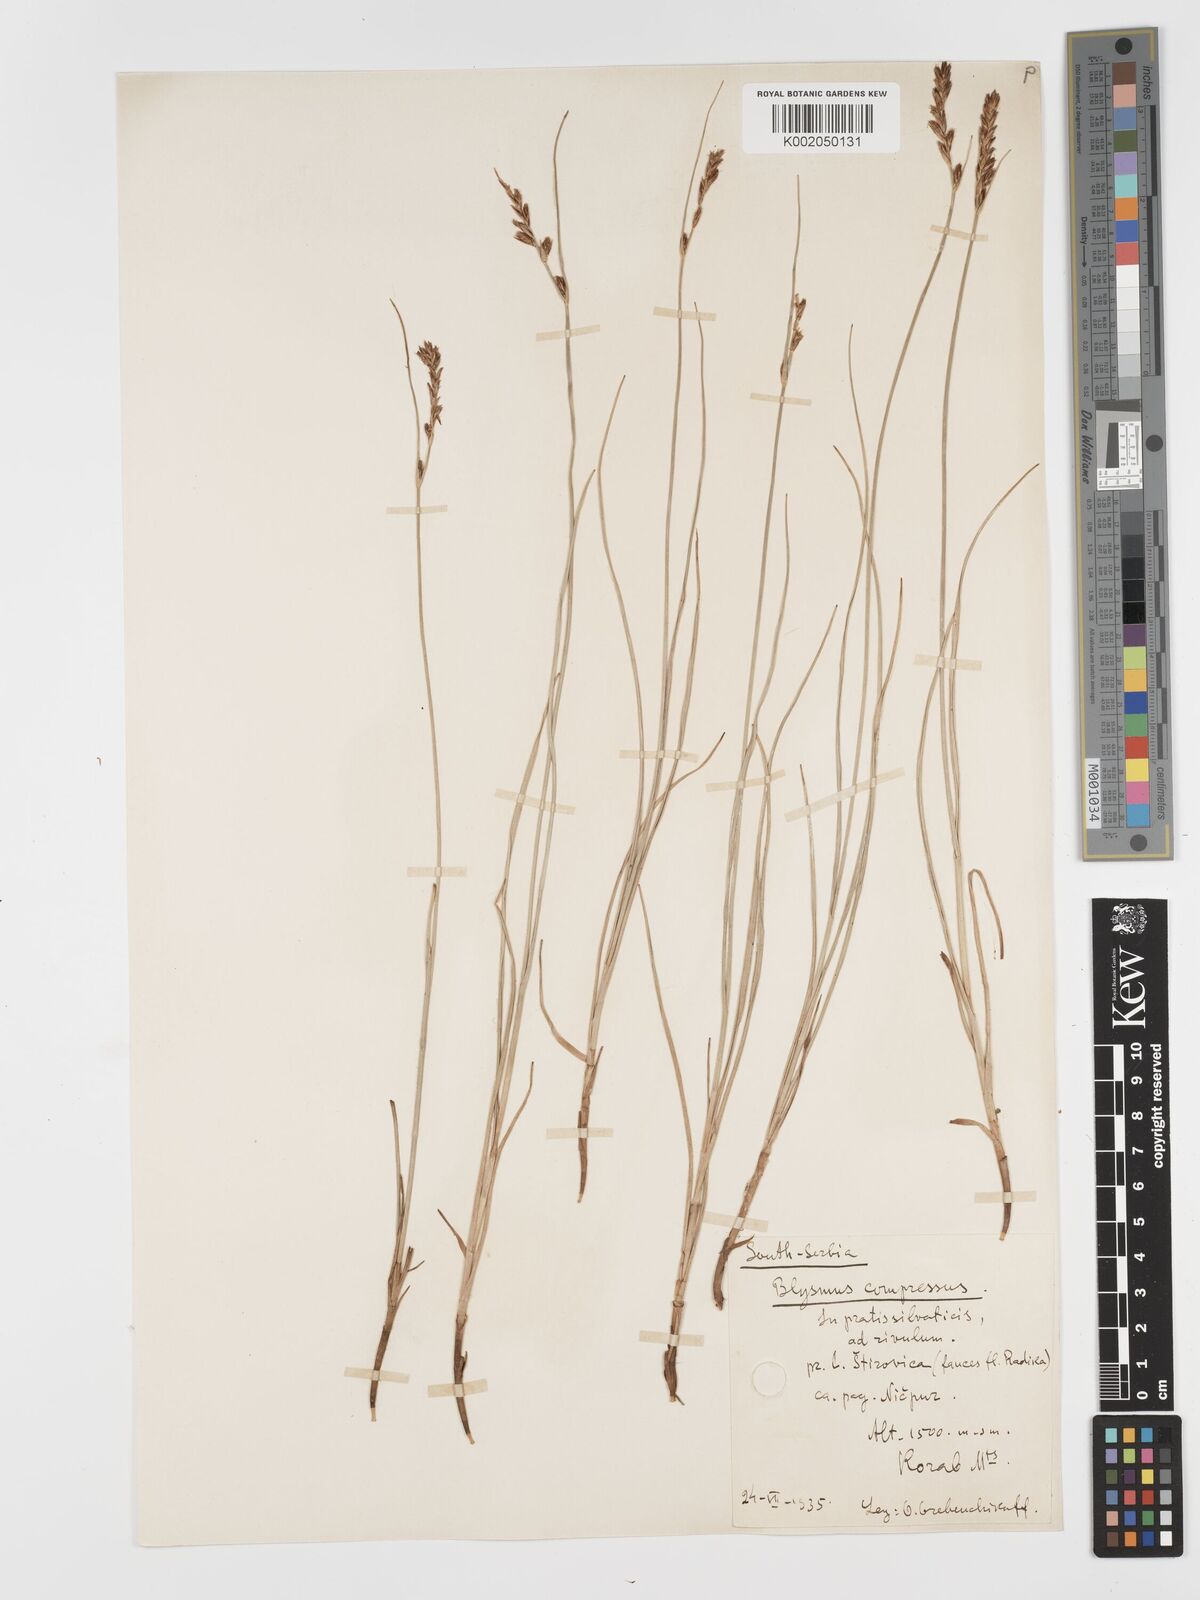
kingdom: Plantae
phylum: Tracheophyta
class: Liliopsida
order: Poales
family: Cyperaceae
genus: Blysmus
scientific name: Blysmus compressus
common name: Flat-sedge
